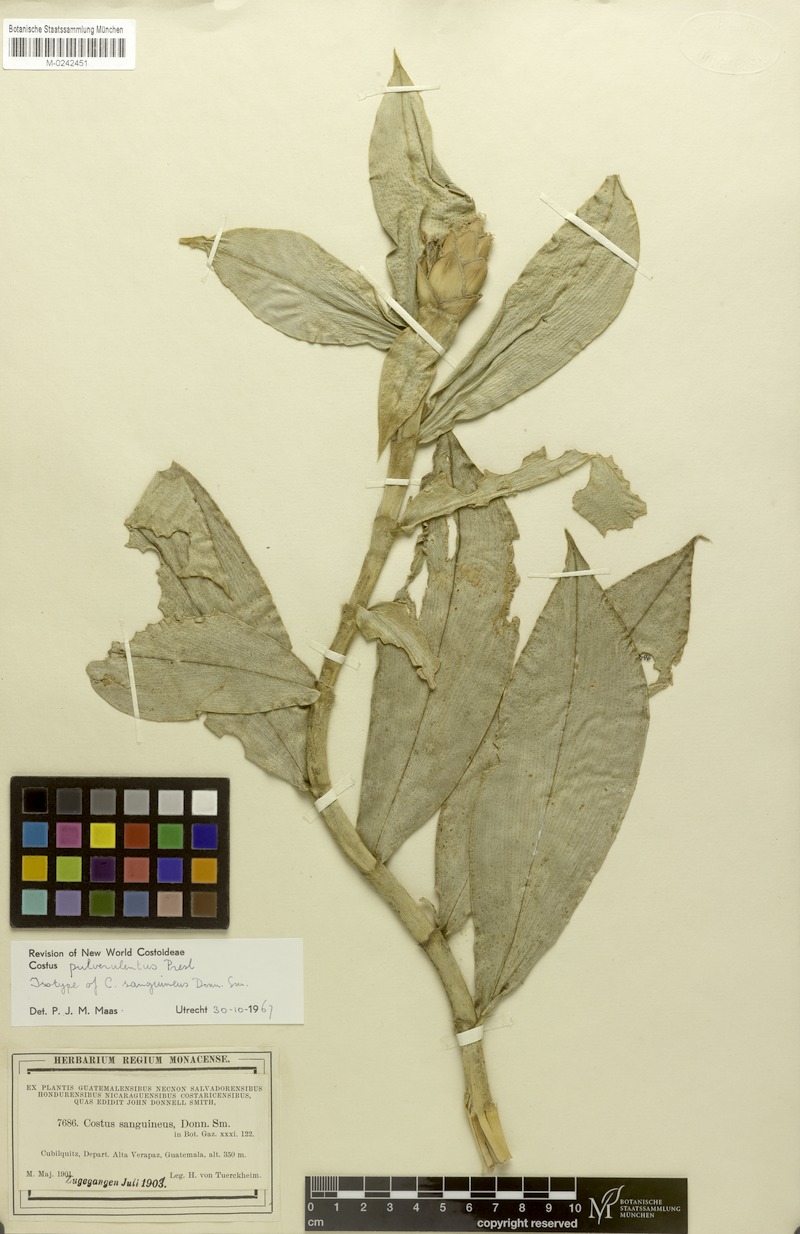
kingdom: Plantae
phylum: Tracheophyta
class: Liliopsida
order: Zingiberales
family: Costaceae
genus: Costus
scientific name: Costus pulverulentus
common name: Spiral ginger
